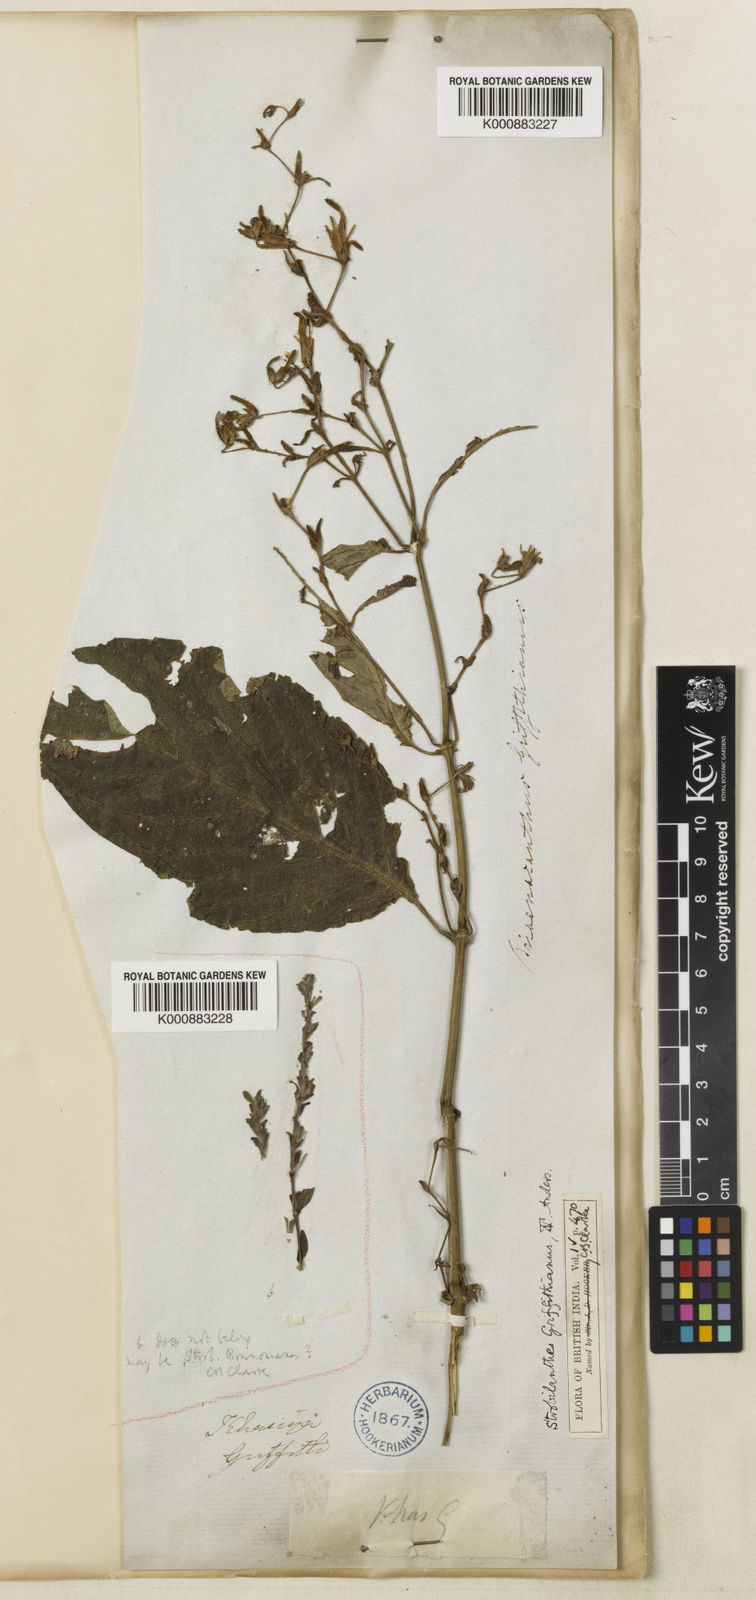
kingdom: Plantae
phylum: Tracheophyta
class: Magnoliopsida
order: Lamiales
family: Acanthaceae
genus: Strobilanthes
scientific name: Strobilanthes cusia
